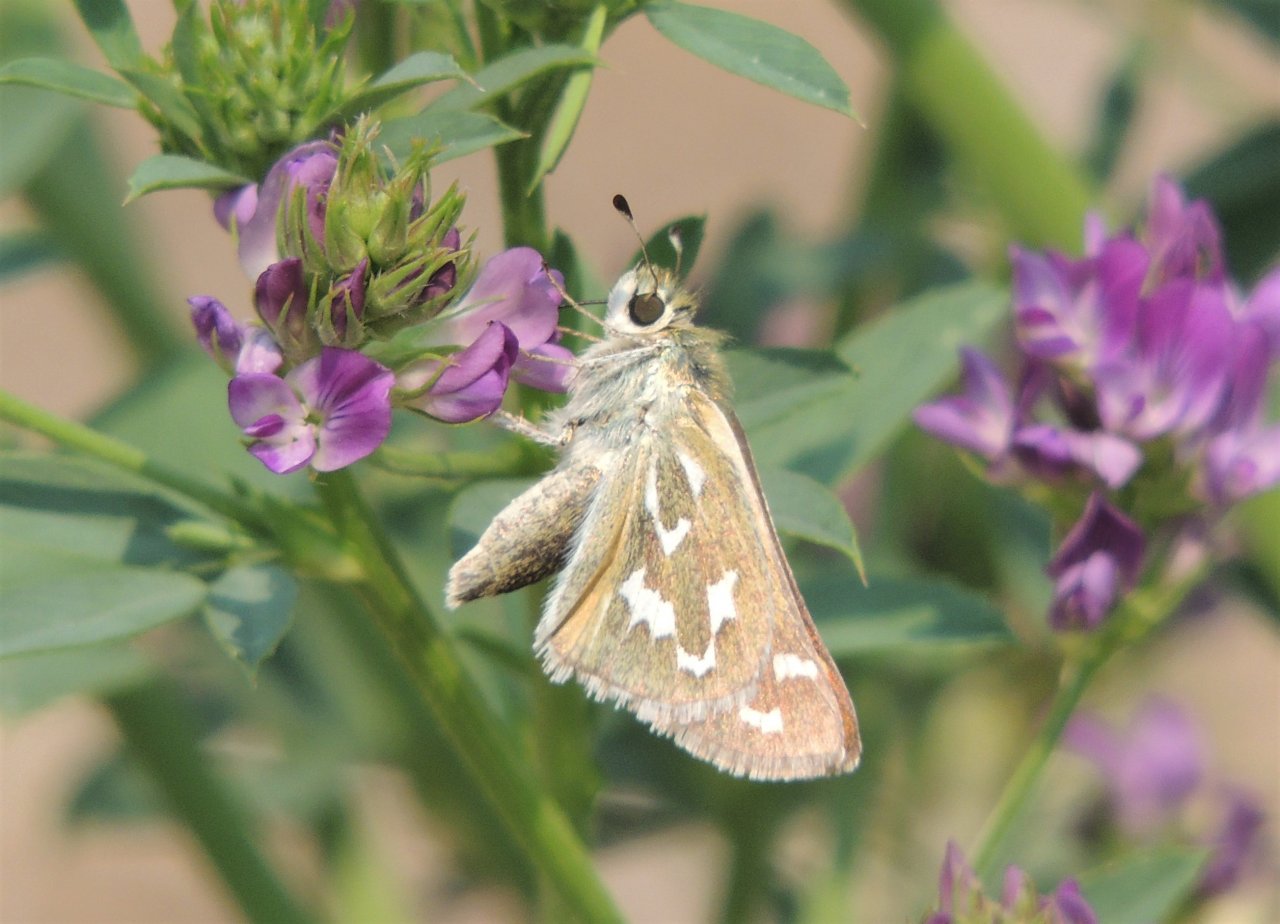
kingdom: Animalia
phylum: Arthropoda
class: Insecta
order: Lepidoptera
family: Hesperiidae
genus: Hesperia
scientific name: Hesperia comma
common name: Western Branded Skipper
